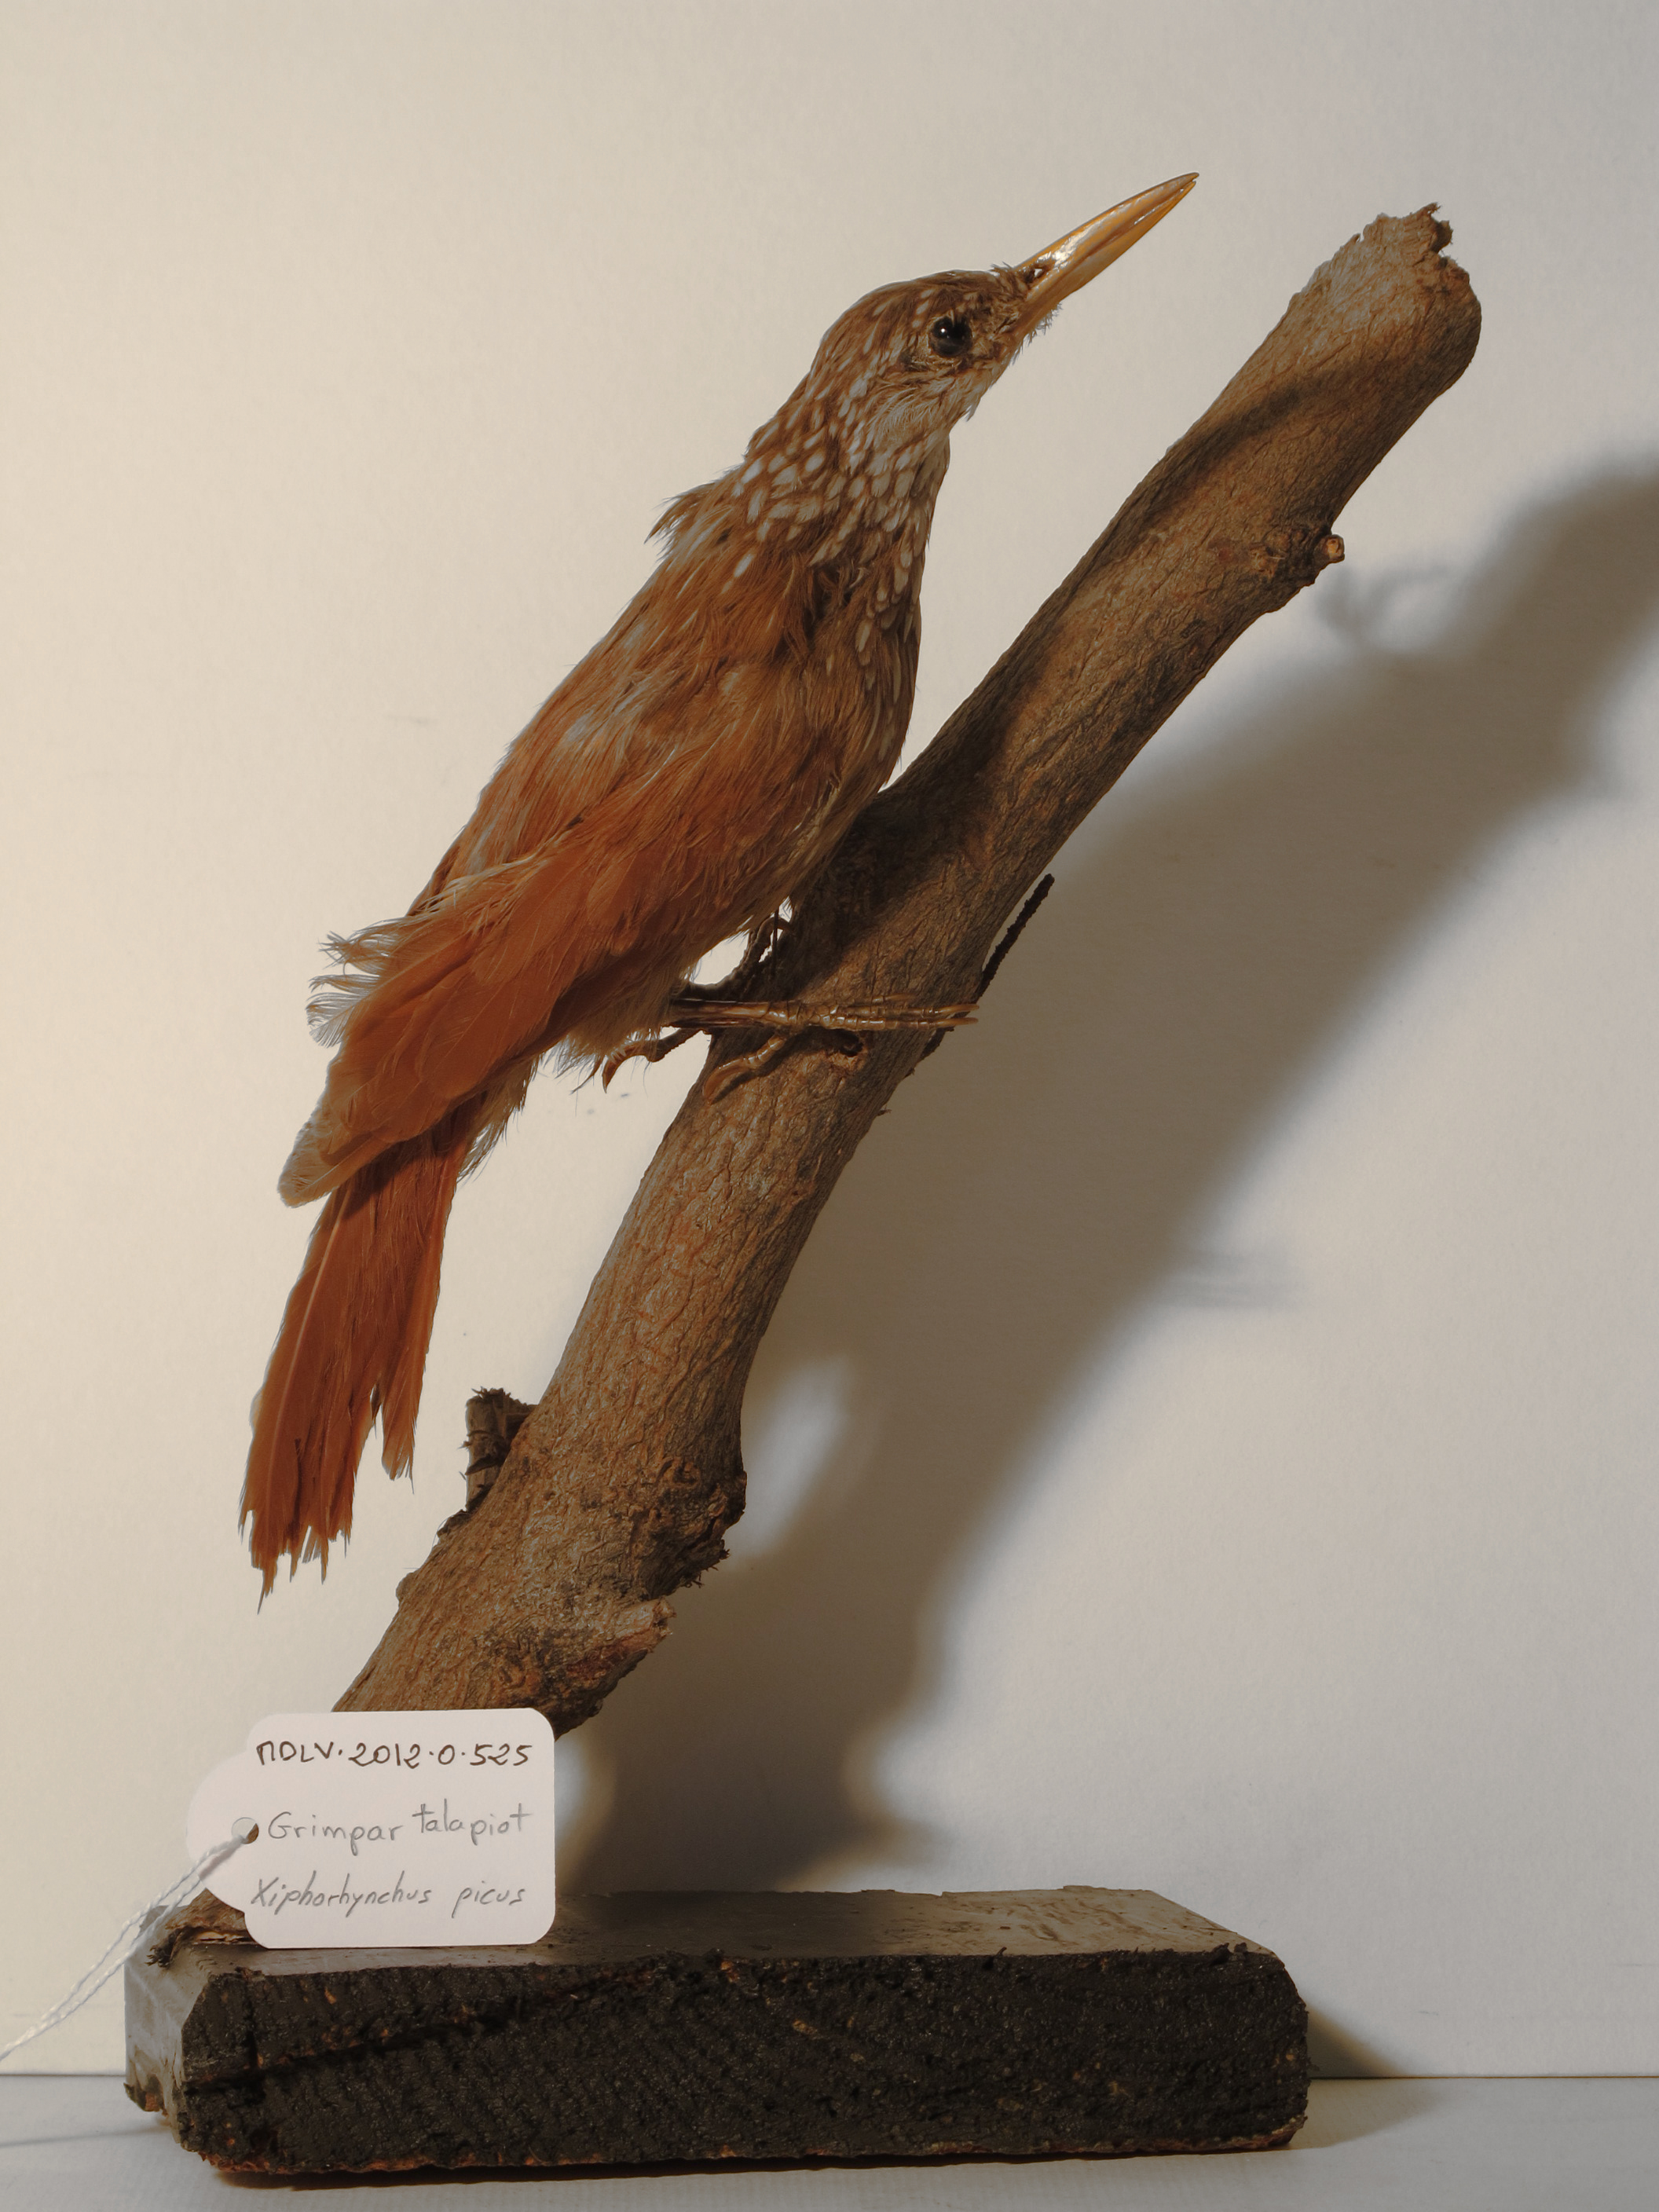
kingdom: Animalia
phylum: Chordata
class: Aves
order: Passeriformes
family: Furnariidae
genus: Xiphorhynchus
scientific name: Xiphorhynchus picus
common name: Straight-billed Woodcreeper
